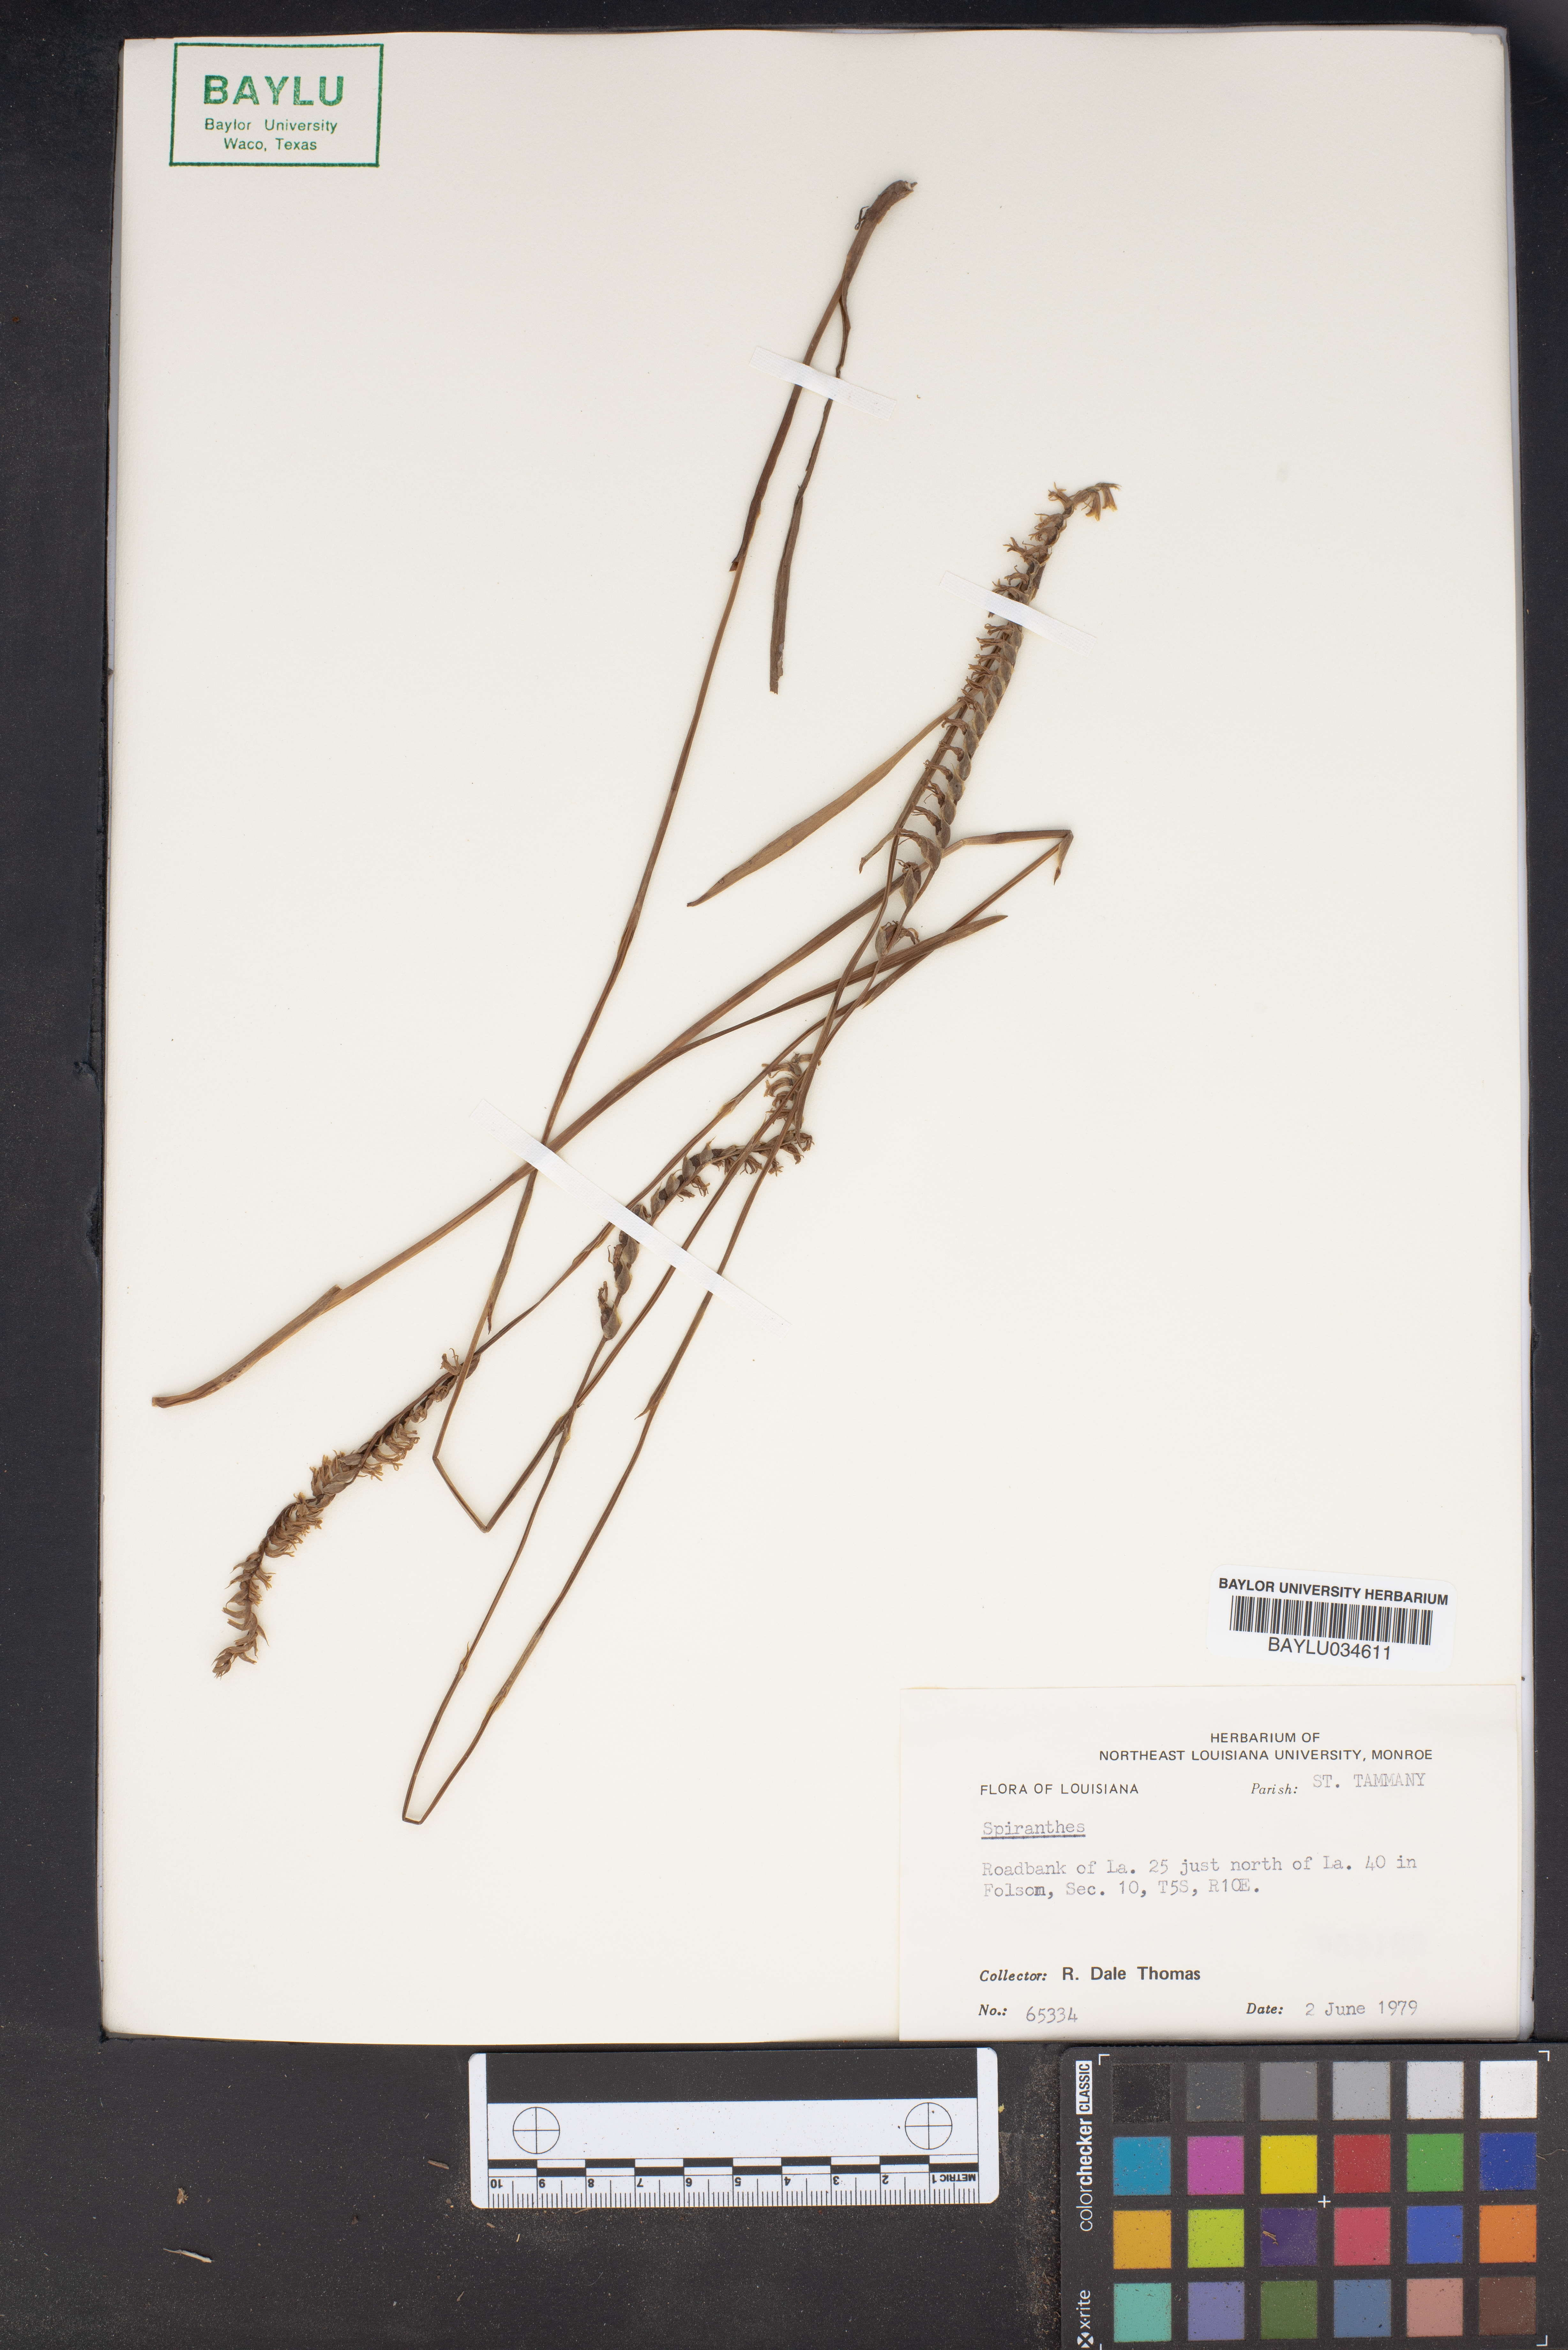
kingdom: Plantae
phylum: Tracheophyta
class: Liliopsida
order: Asparagales
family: Orchidaceae
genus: Spiranthes
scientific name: Spiranthes
